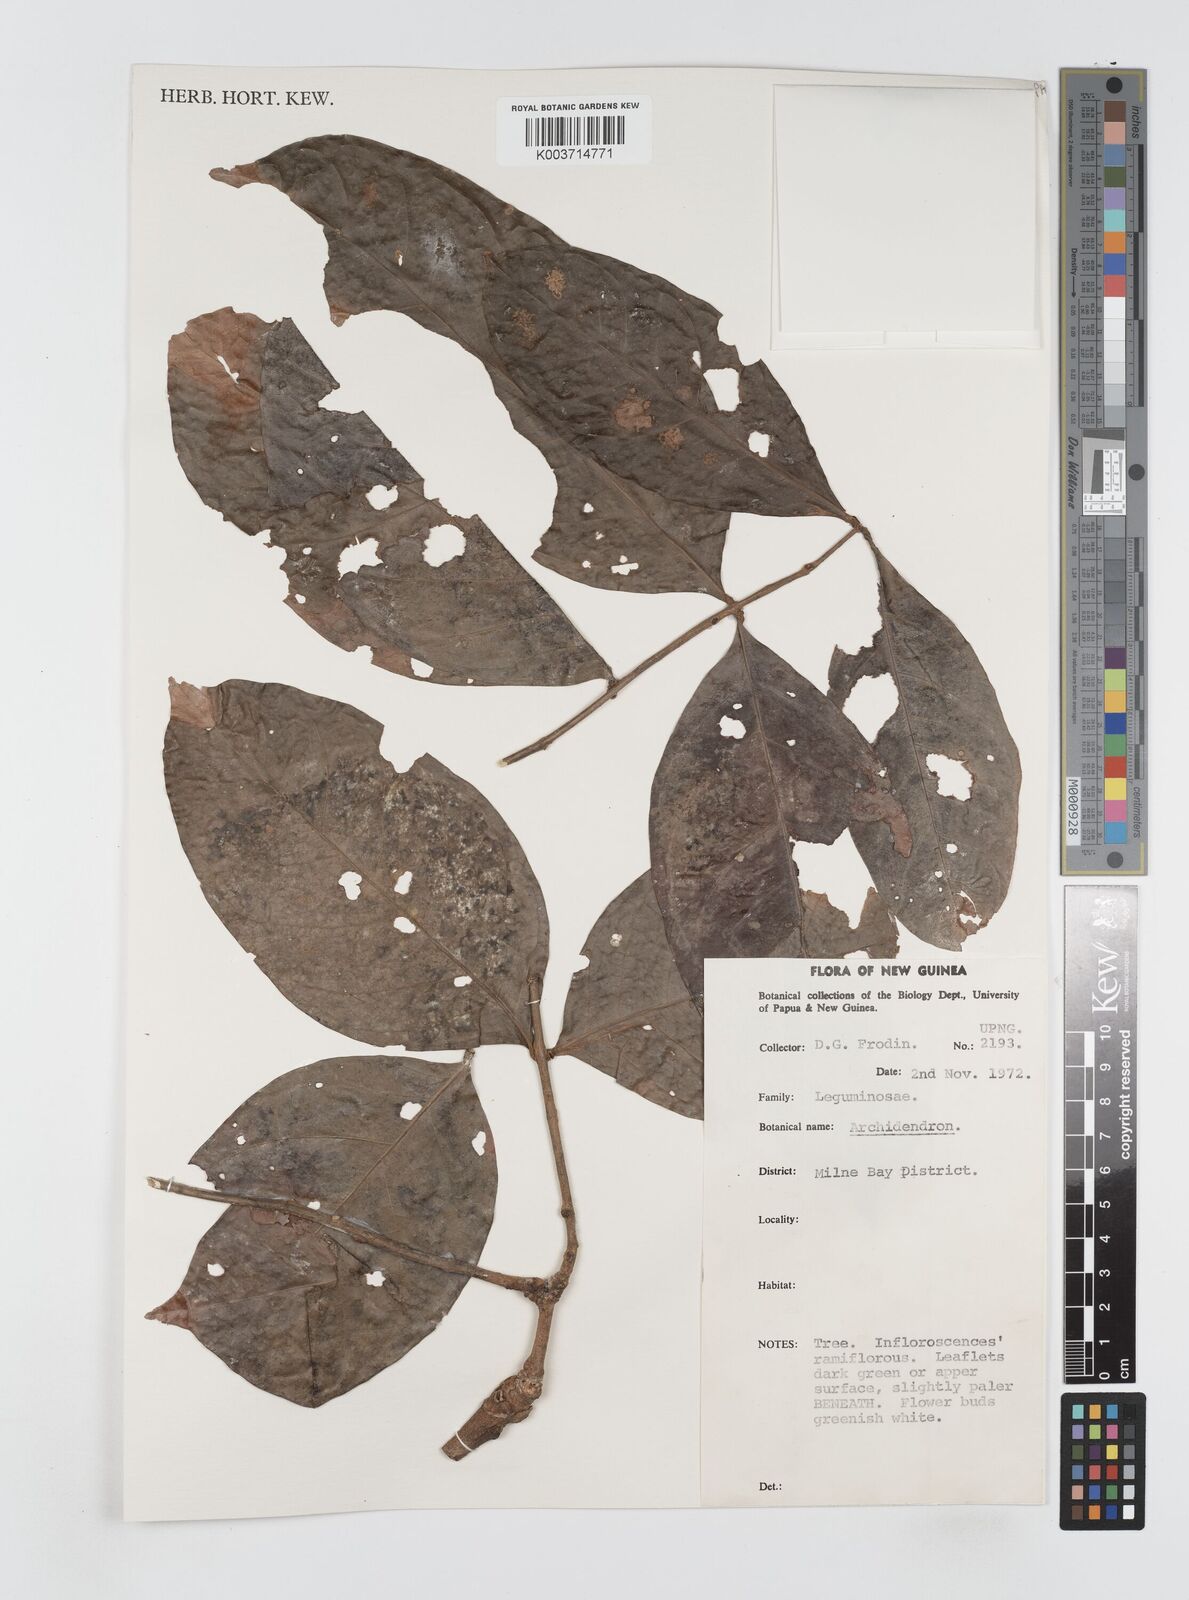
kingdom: Plantae
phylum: Tracheophyta
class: Magnoliopsida
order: Fabales
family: Fabaceae
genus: Archidendron
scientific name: Archidendron
